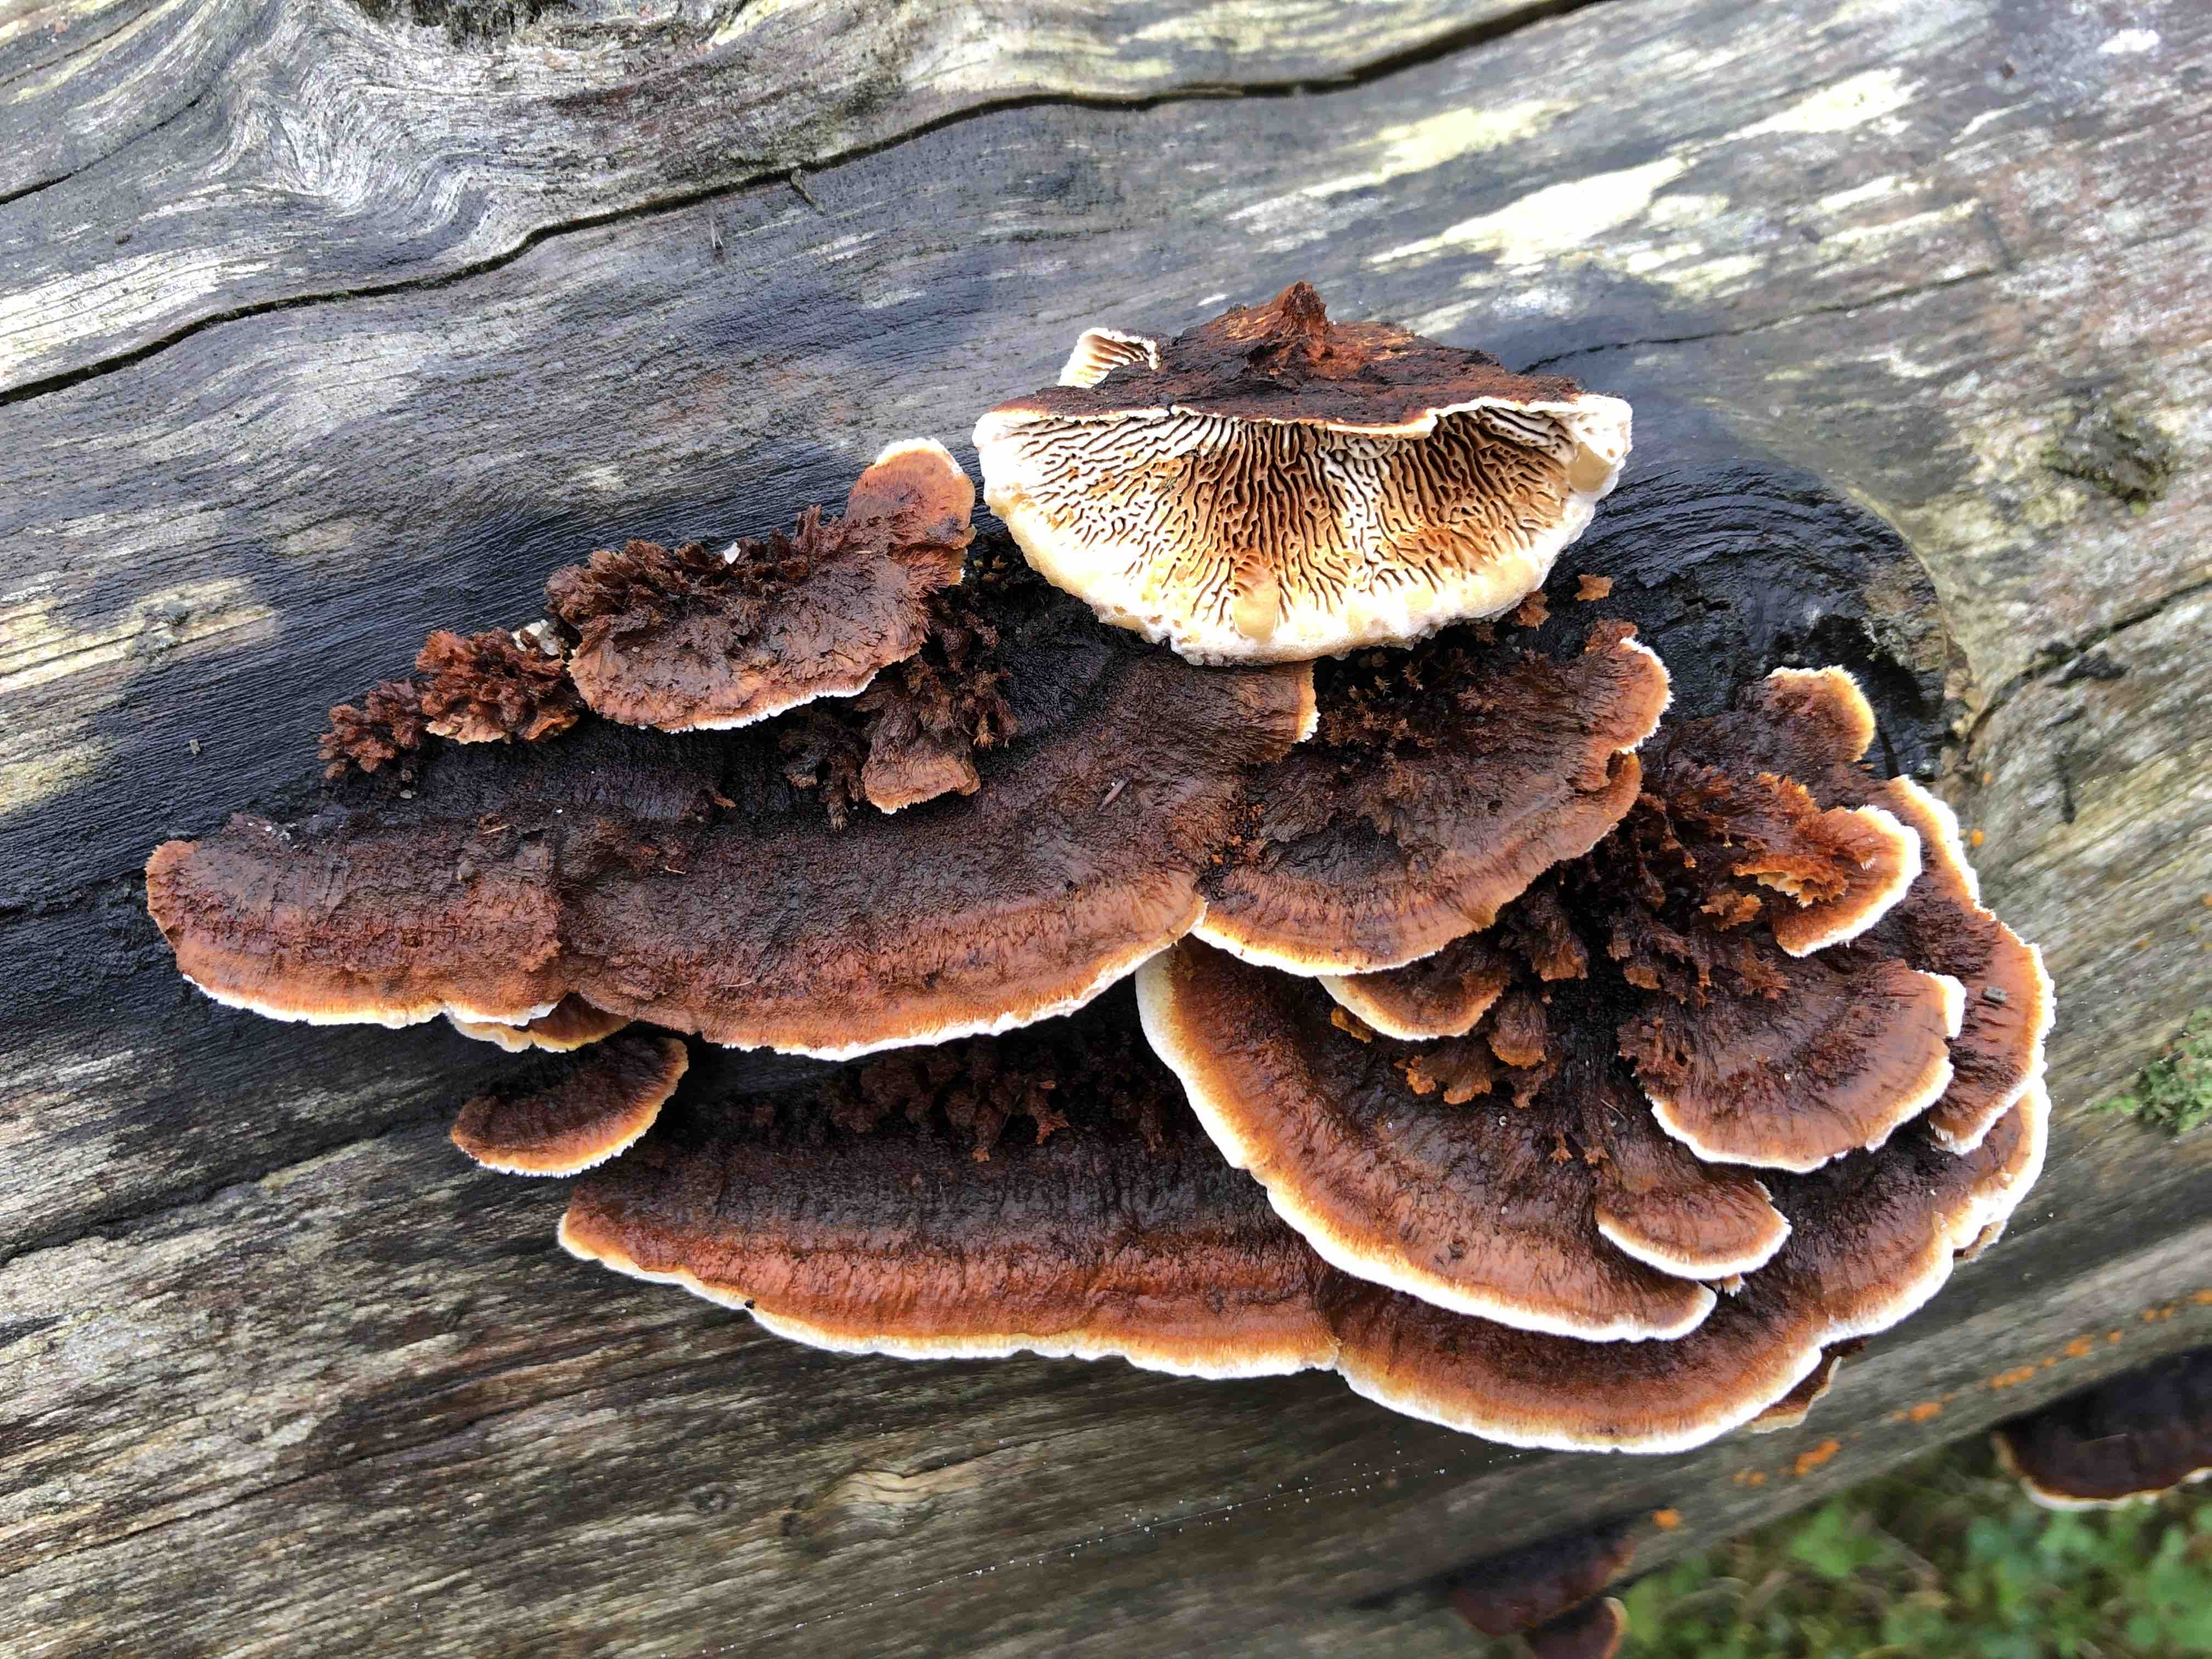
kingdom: Fungi
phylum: Basidiomycota
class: Agaricomycetes
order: Gloeophyllales
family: Gloeophyllaceae
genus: Gloeophyllum
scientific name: Gloeophyllum sepiarium
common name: fyrre-korkhat
